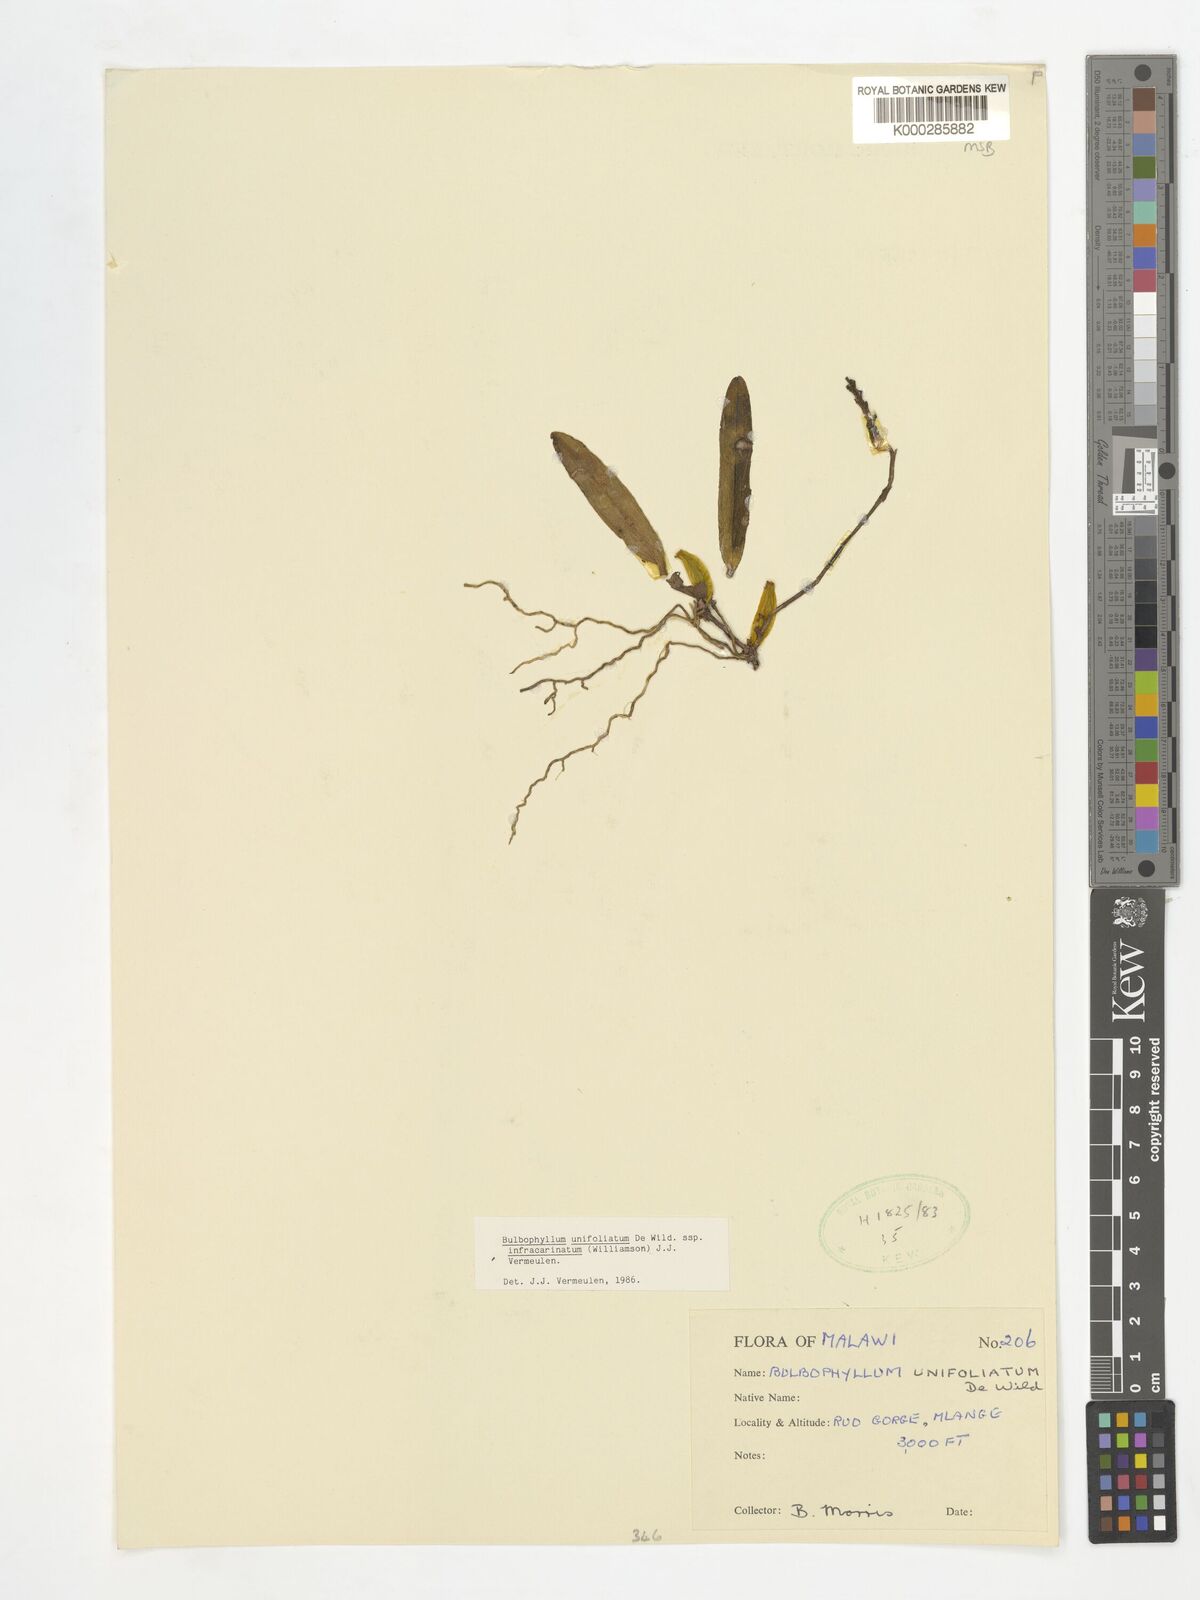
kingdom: Plantae
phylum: Tracheophyta
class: Liliopsida
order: Asparagales
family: Orchidaceae
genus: Bulbophyllum
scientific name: Bulbophyllum unifoliatum
